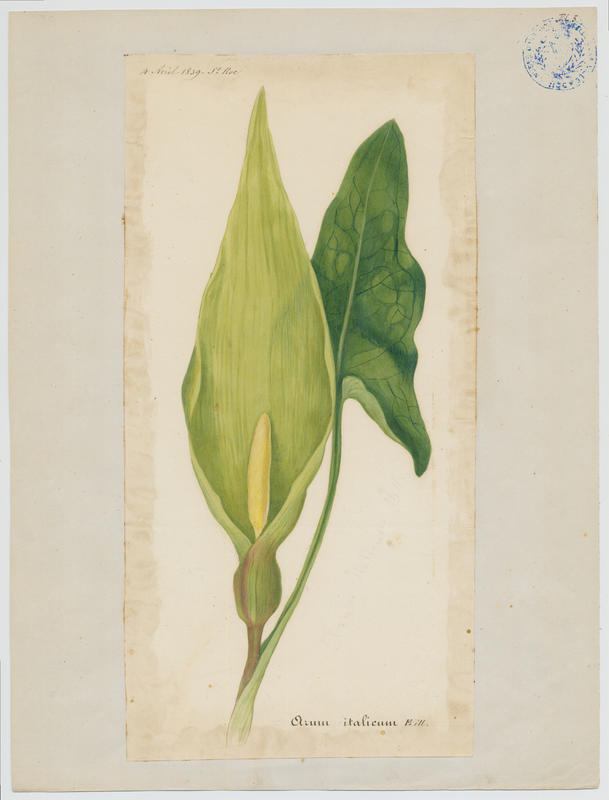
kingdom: Plantae
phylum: Tracheophyta
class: Liliopsida
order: Alismatales
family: Araceae
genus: Arum
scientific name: Arum italicum
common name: Italian lords-and-ladies
